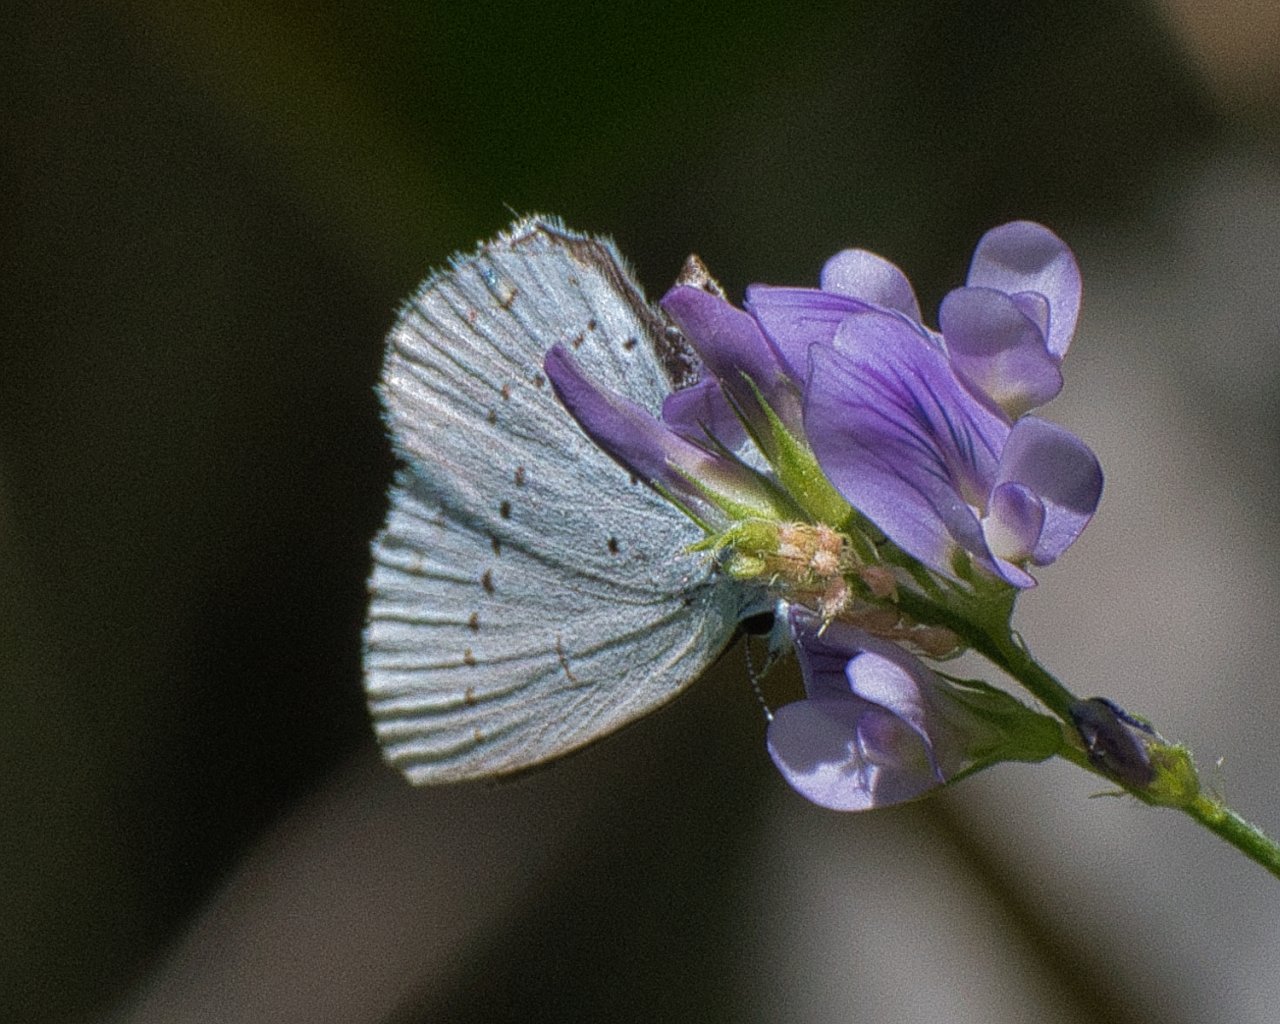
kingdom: Animalia
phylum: Arthropoda
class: Insecta
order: Lepidoptera
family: Lycaenidae
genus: Elkalyce
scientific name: Elkalyce amyntula
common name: Western Tailed-Blue
